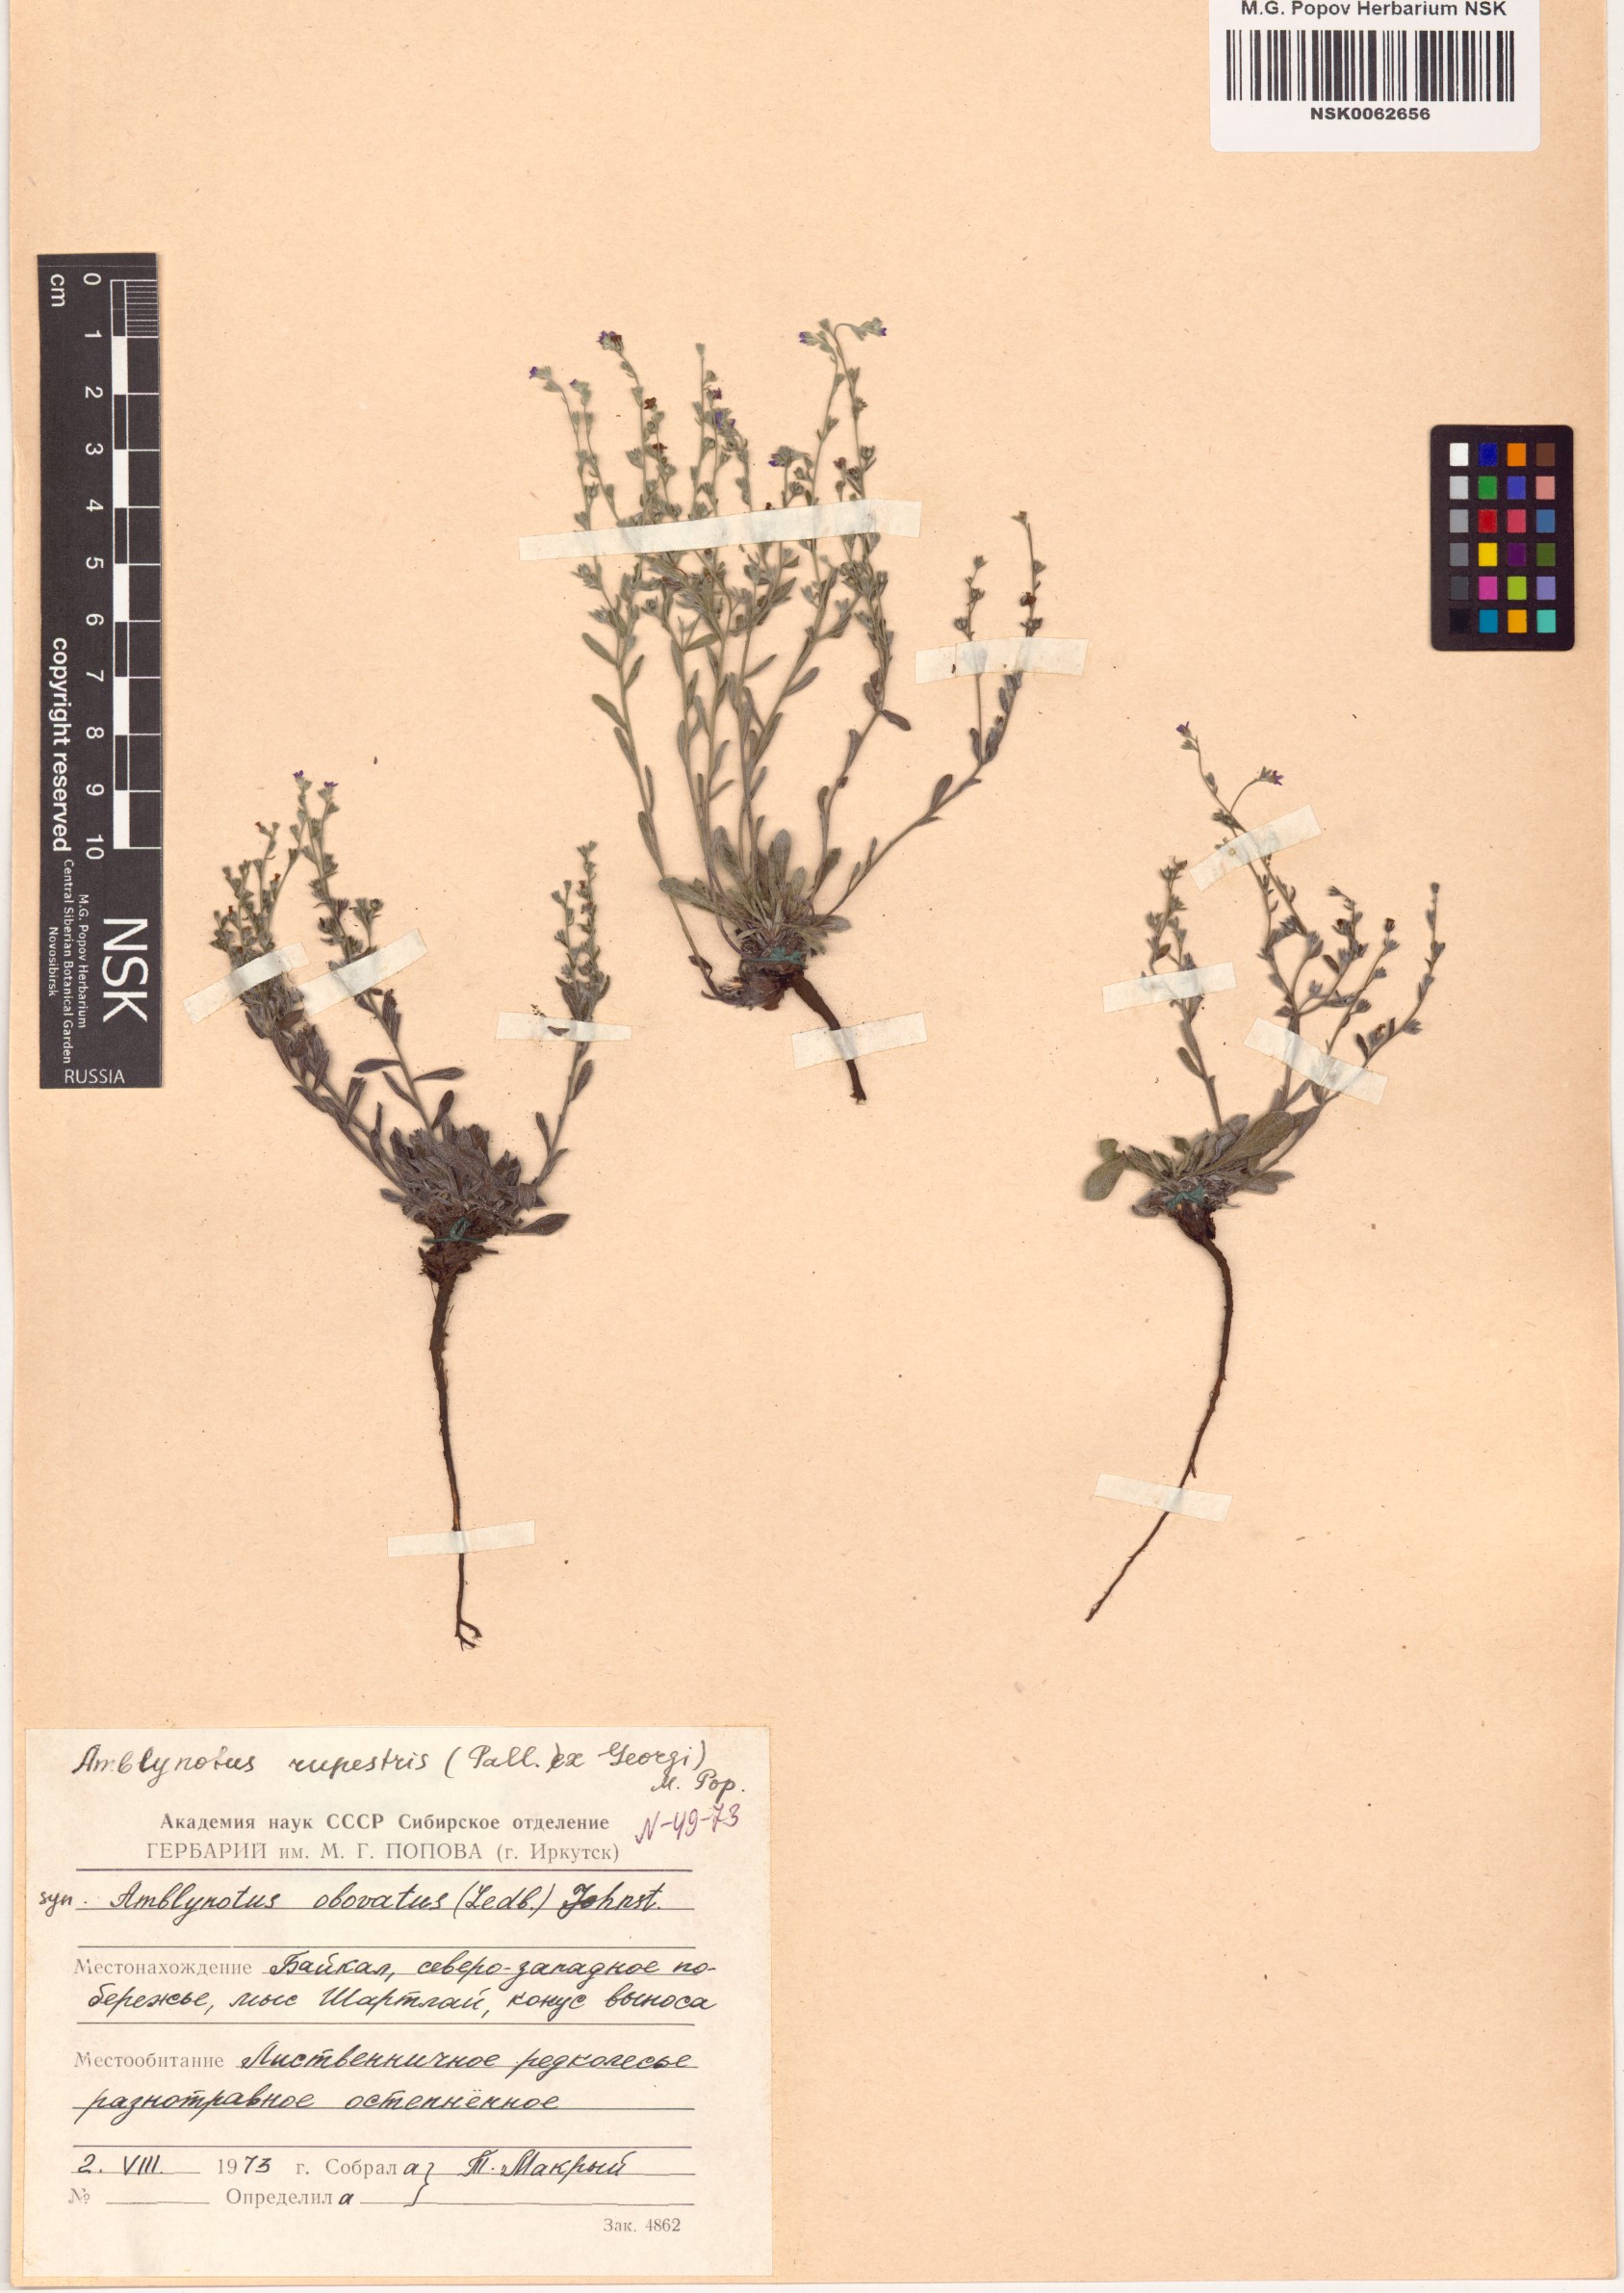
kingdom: Plantae
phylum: Tracheophyta
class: Magnoliopsida
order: Boraginales
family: Boraginaceae
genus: Eritrichium
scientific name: Eritrichium rupestre
